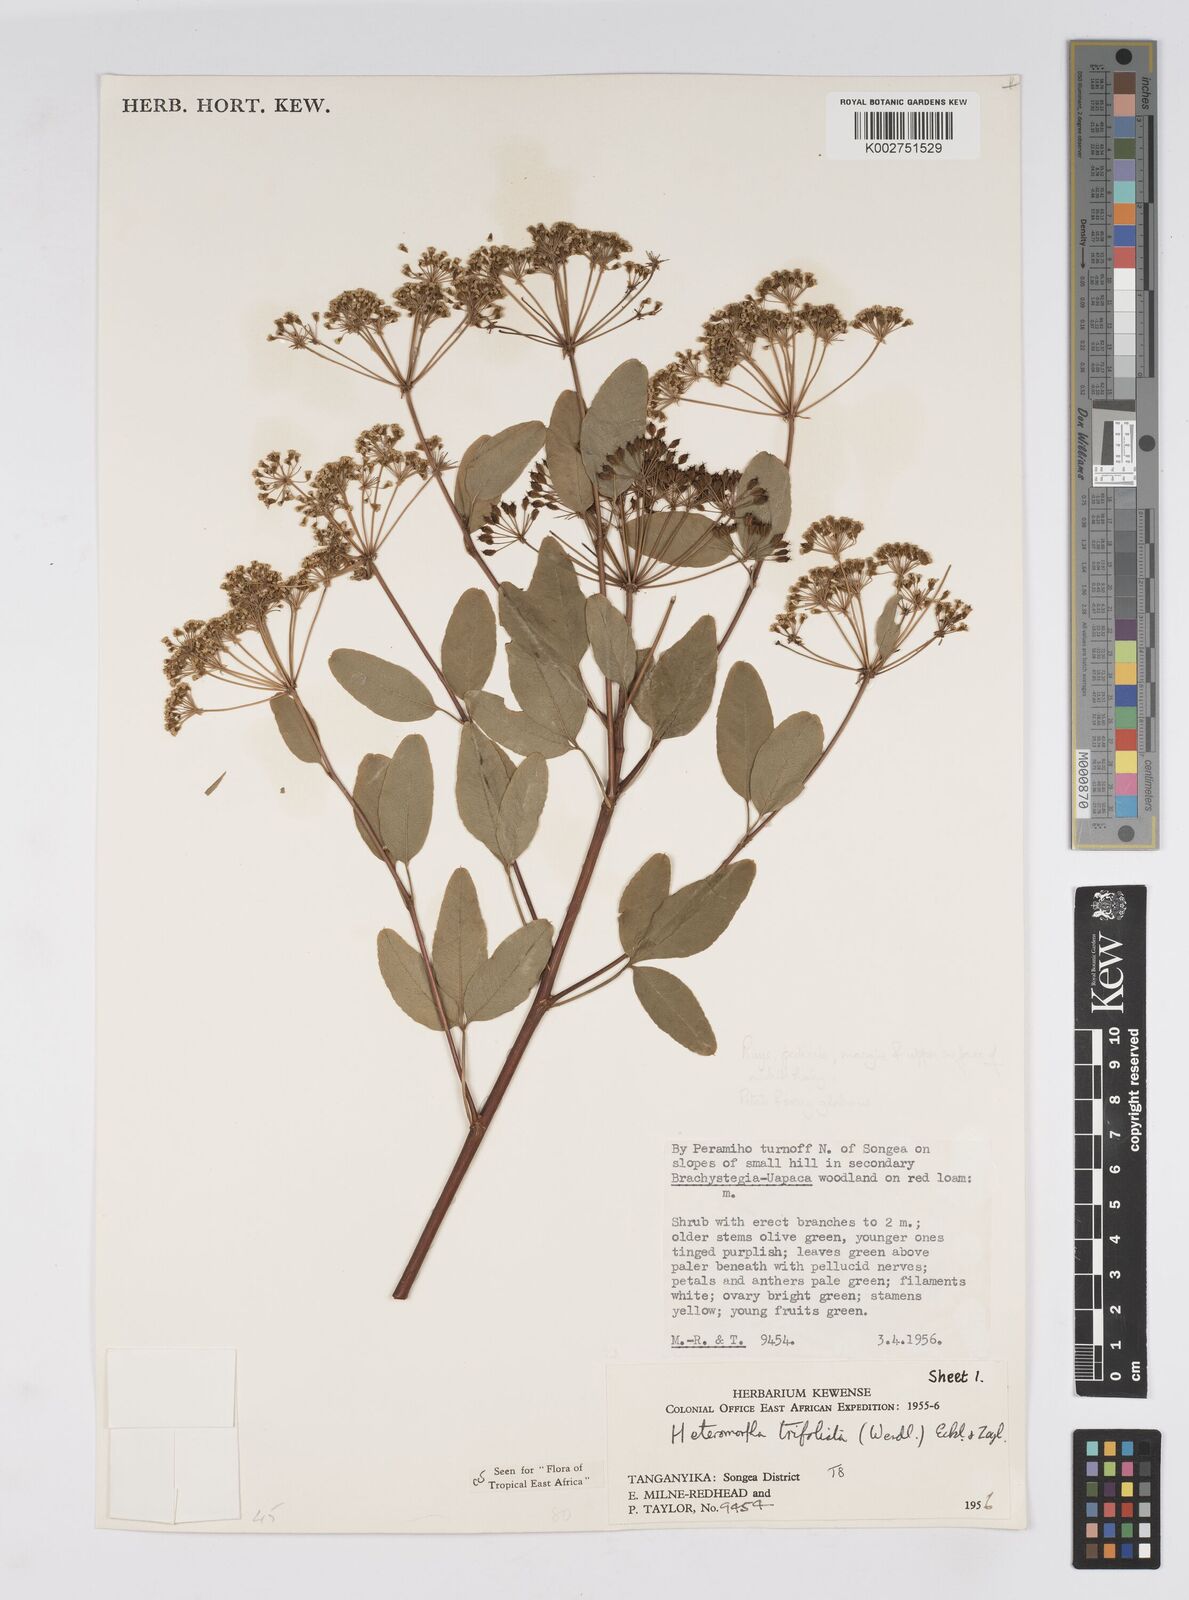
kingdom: Plantae
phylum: Tracheophyta
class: Magnoliopsida
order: Apiales
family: Apiaceae
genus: Heteromorpha
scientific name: Heteromorpha arborescens
